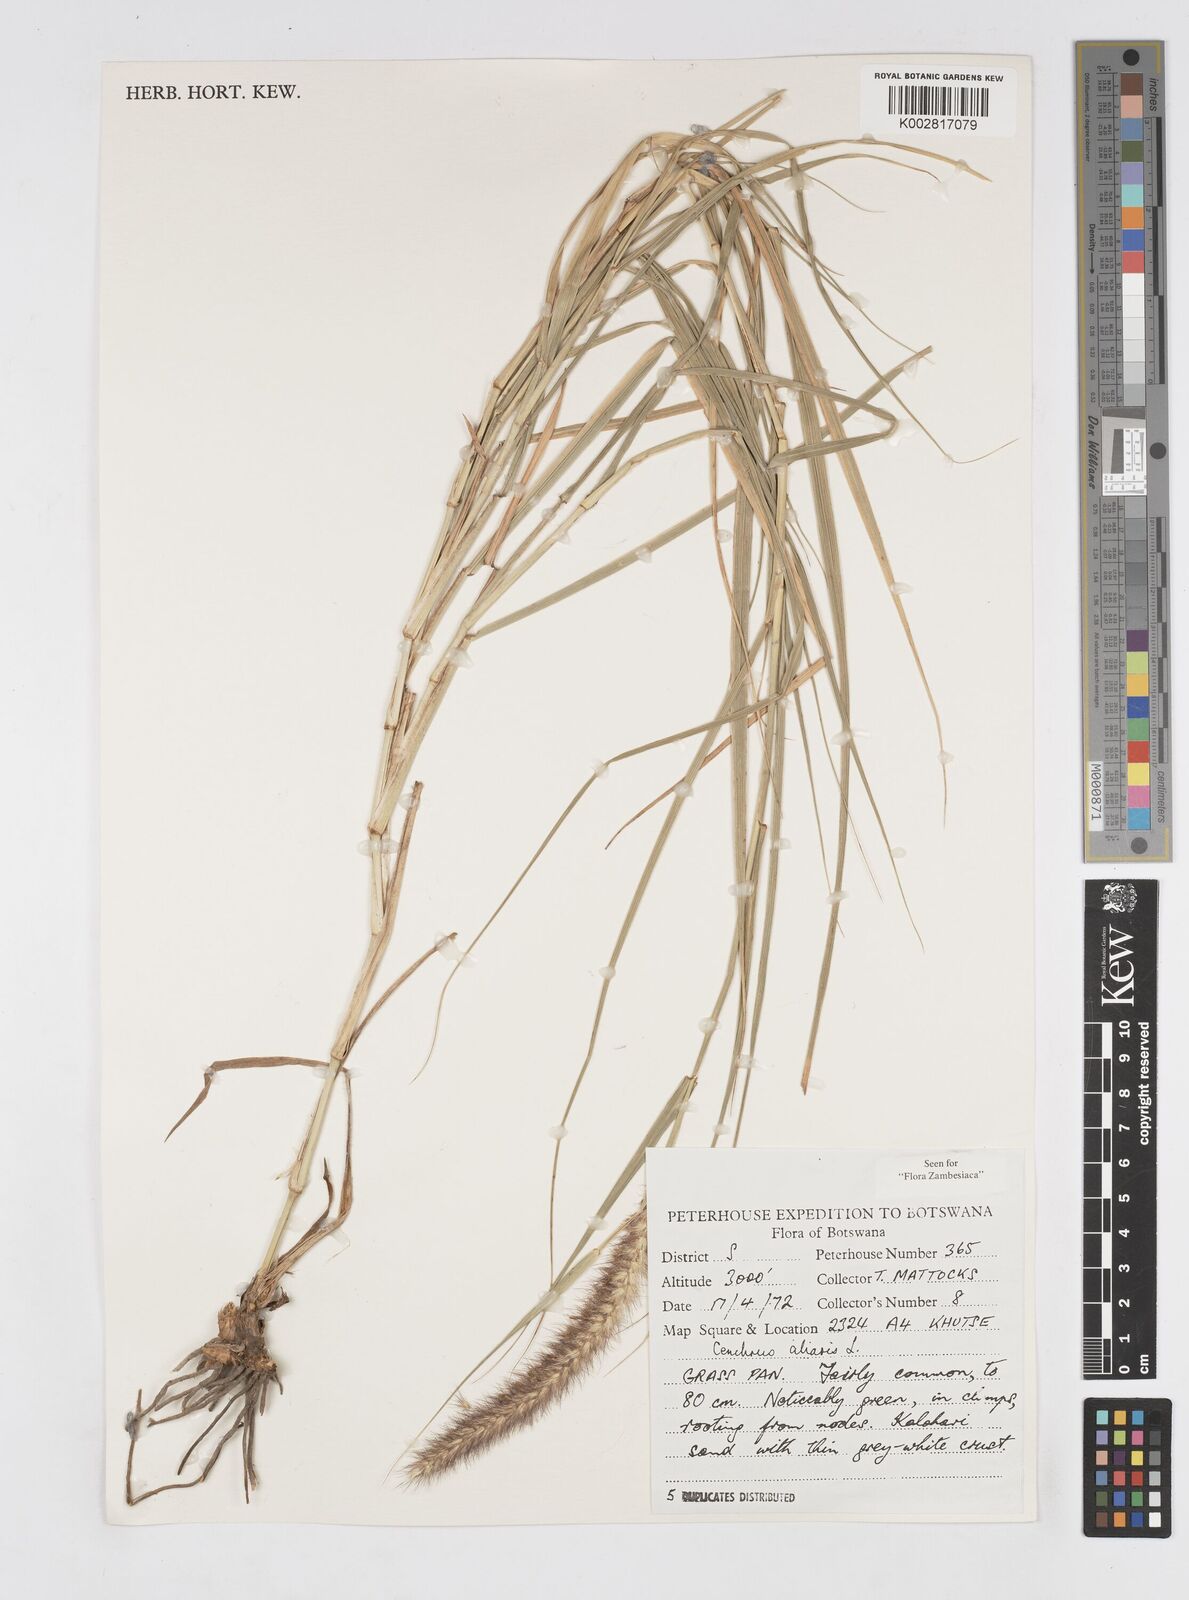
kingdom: Plantae
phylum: Tracheophyta
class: Liliopsida
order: Poales
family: Poaceae
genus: Cenchrus
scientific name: Cenchrus ciliaris
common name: Buffelgrass
